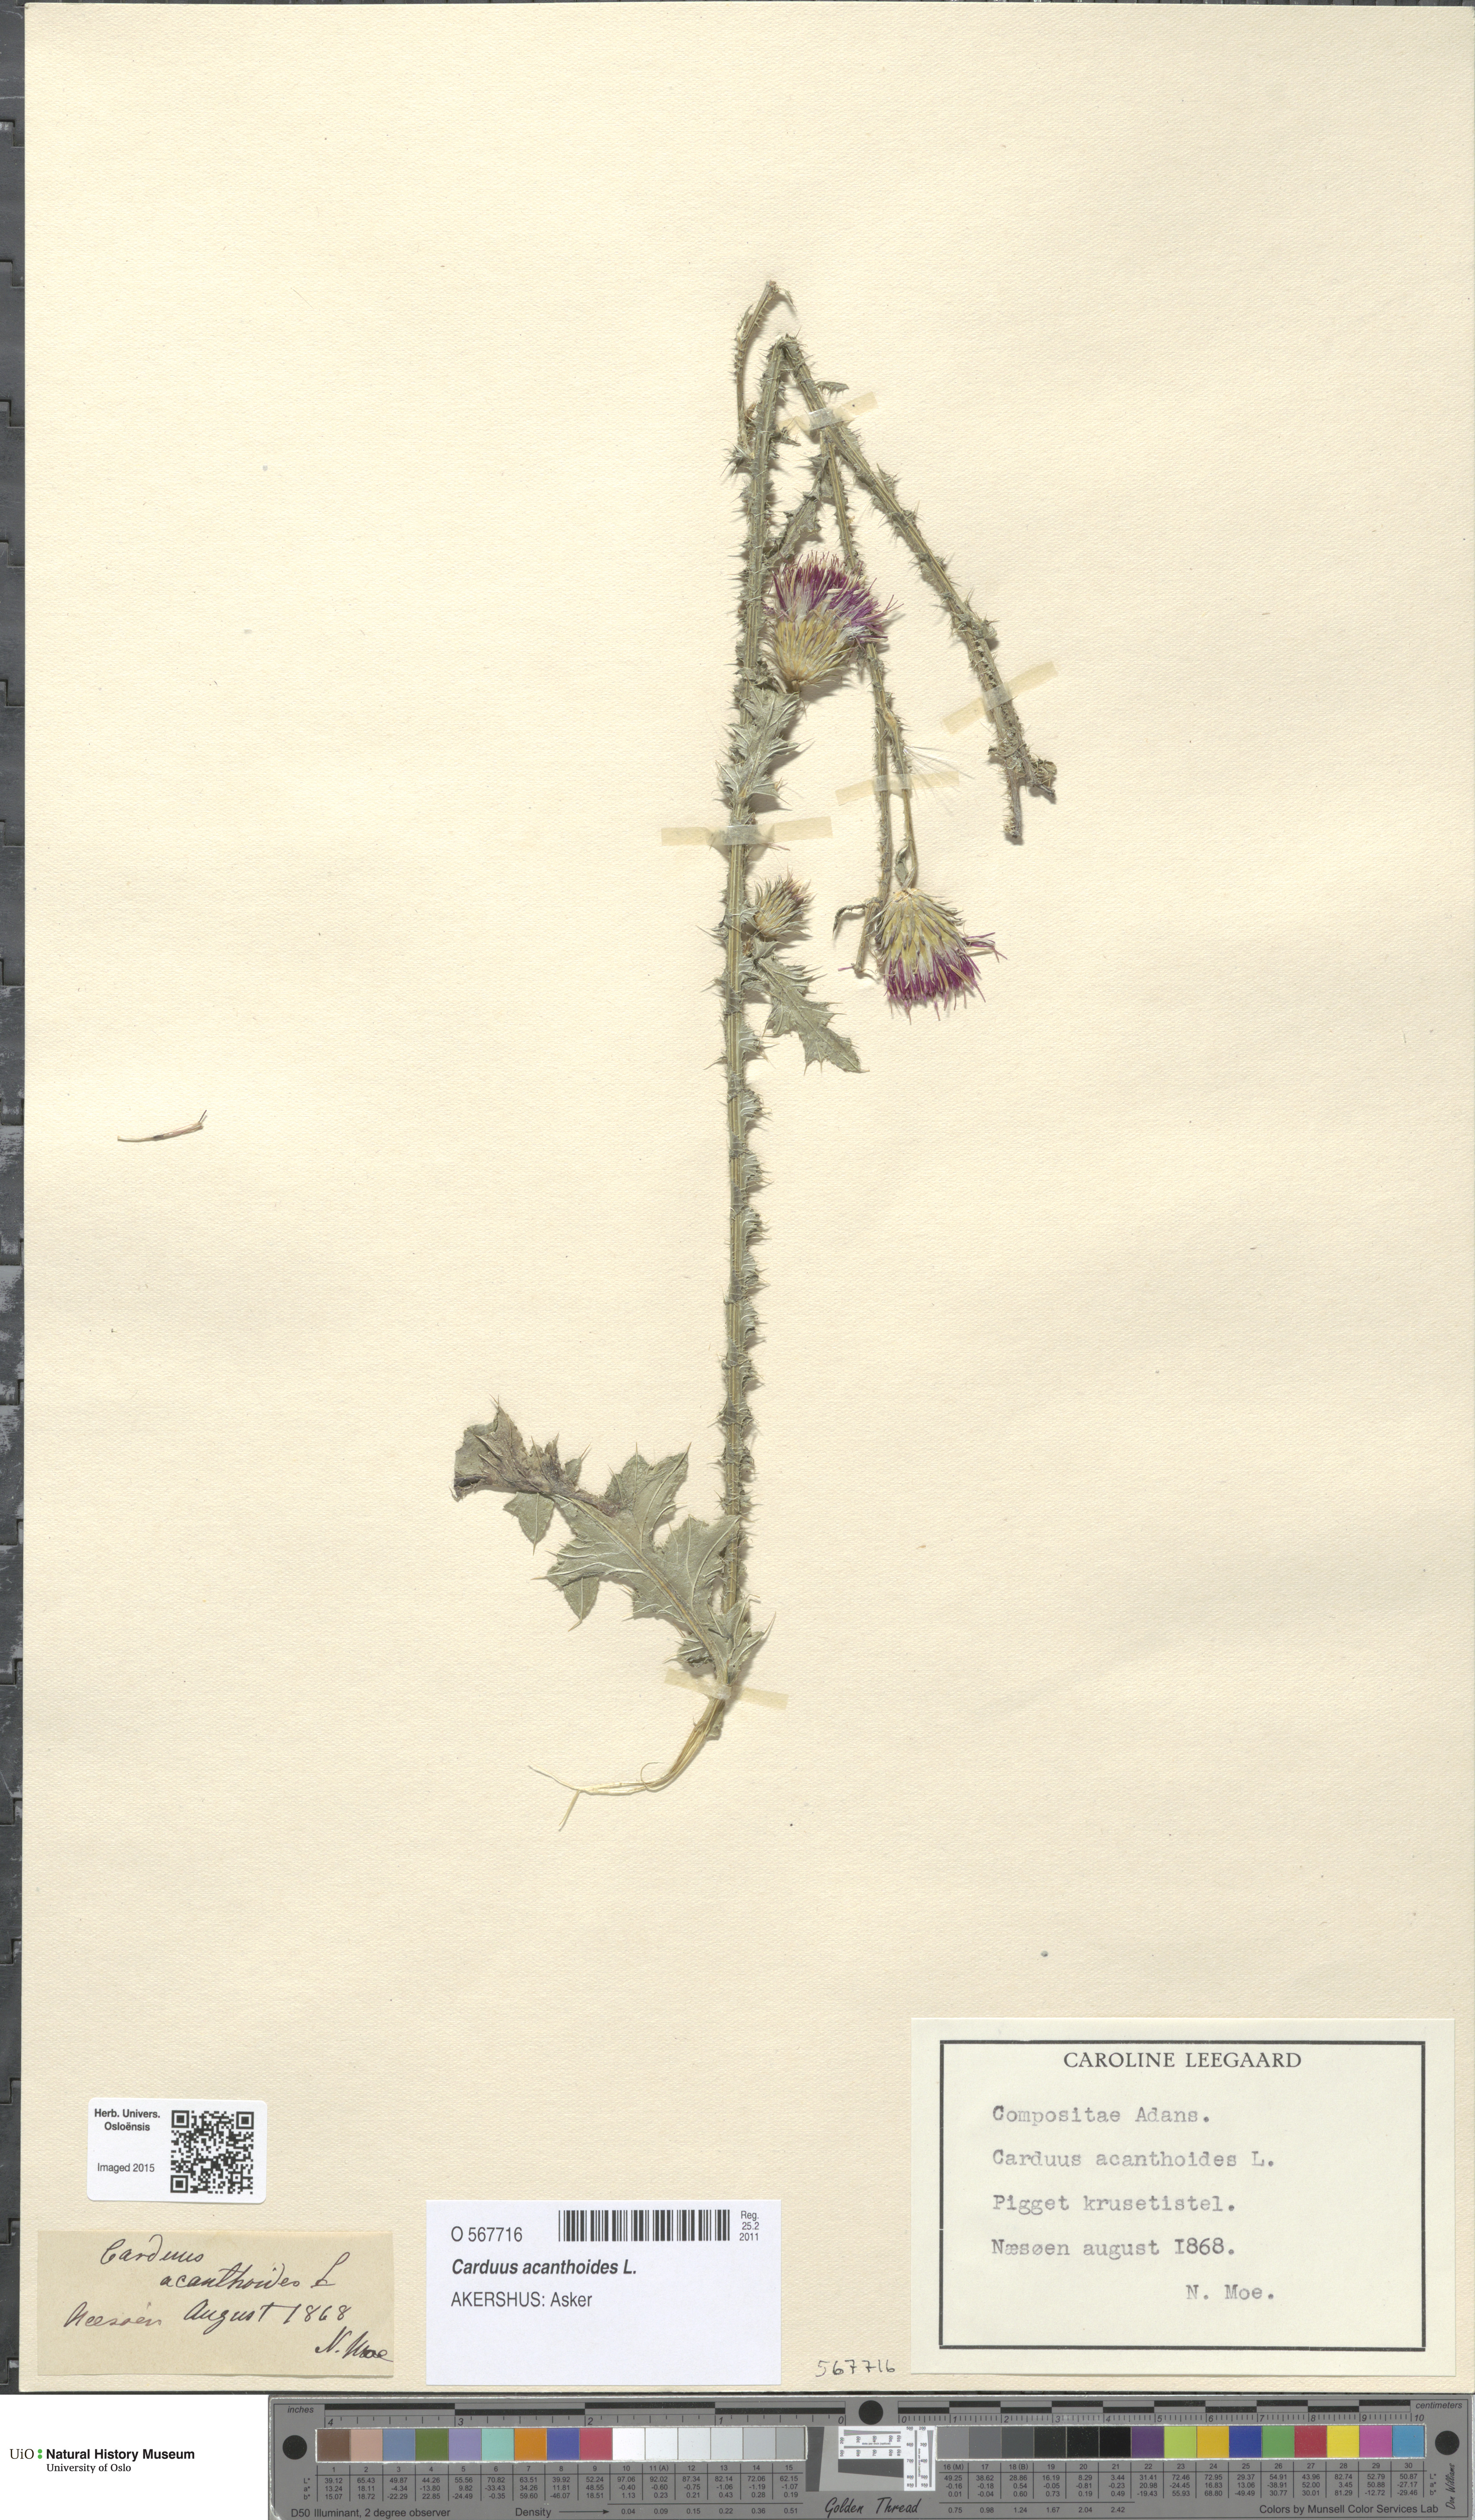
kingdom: Plantae
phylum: Tracheophyta
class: Magnoliopsida
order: Asterales
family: Asteraceae
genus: Carduus
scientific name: Carduus acanthoides
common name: Plumeless thistle
